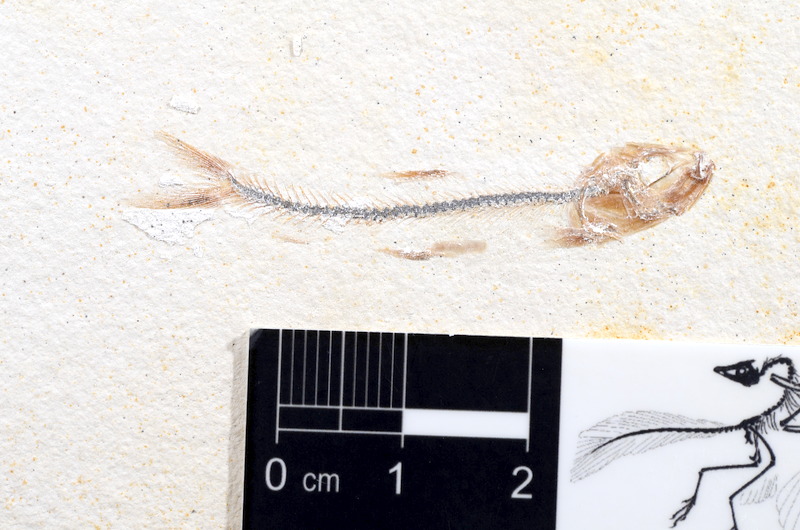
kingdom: Animalia
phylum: Chordata
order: Salmoniformes
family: Orthogonikleithridae
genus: Orthogonikleithrus
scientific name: Orthogonikleithrus hoelli
